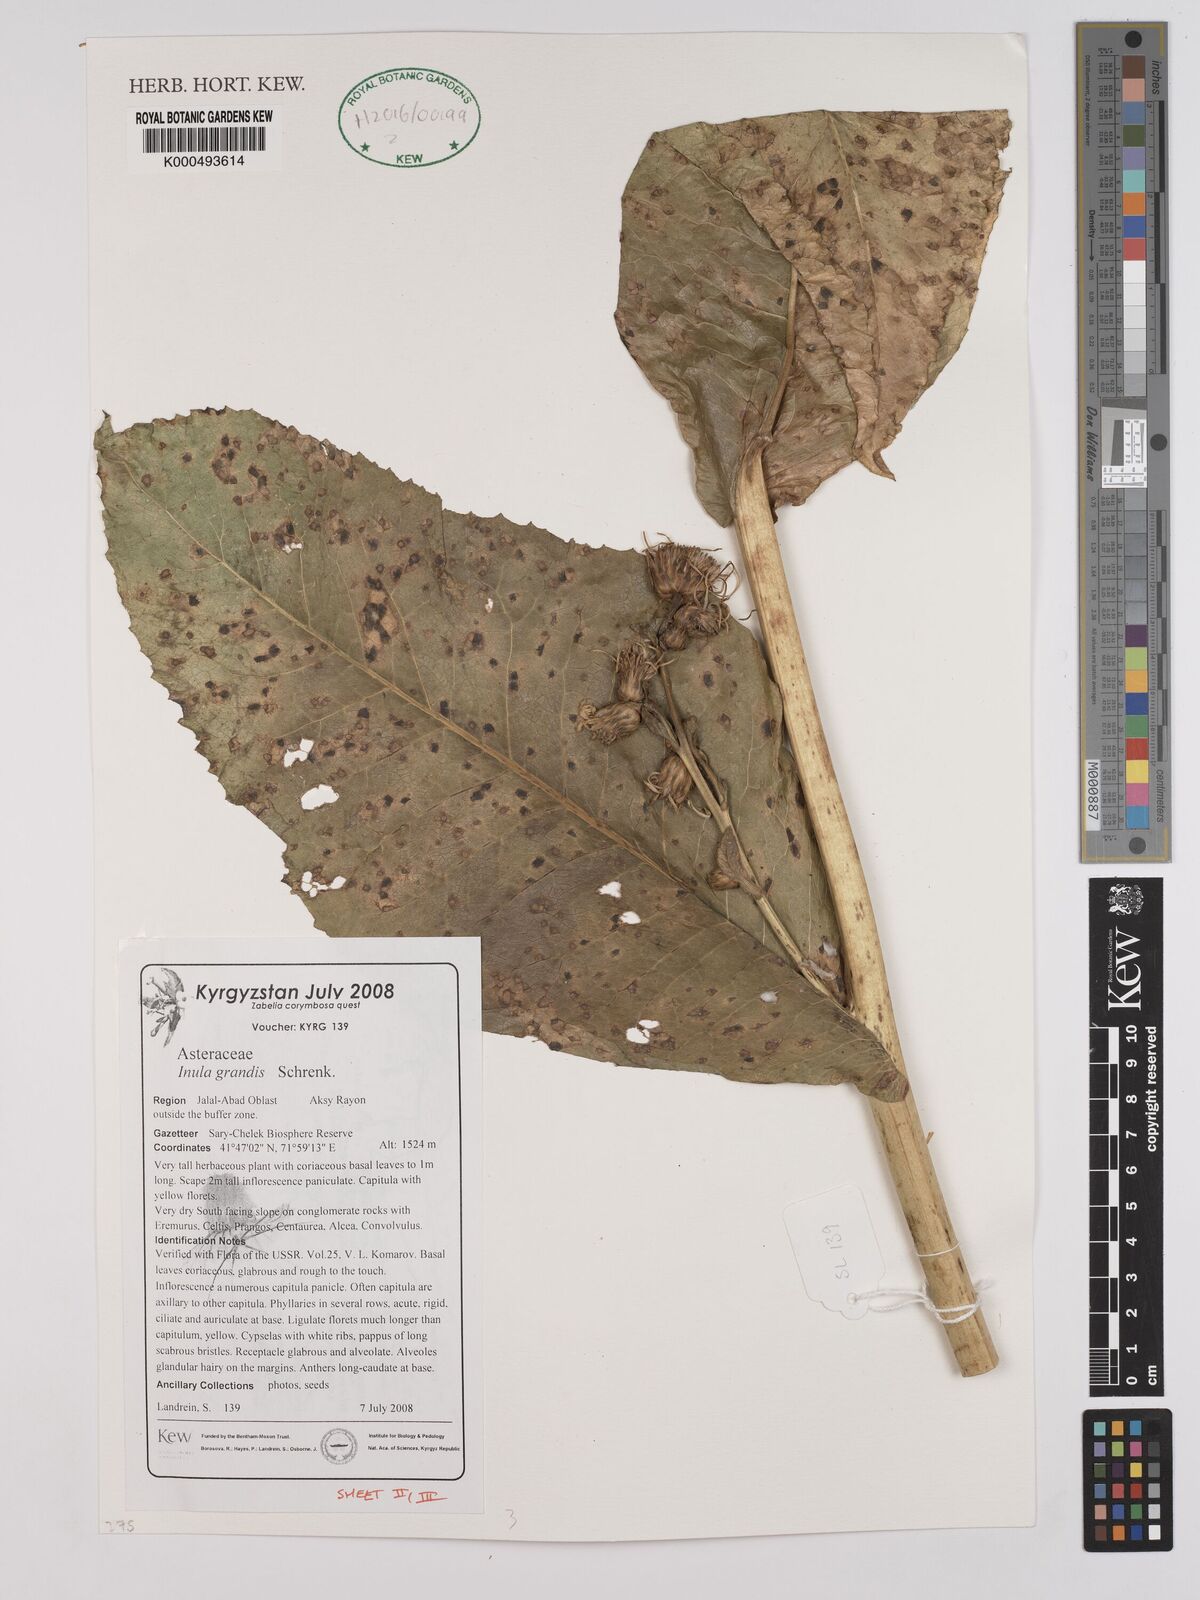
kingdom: Plantae
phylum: Tracheophyta
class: Magnoliopsida
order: Asterales
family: Asteraceae
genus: Inula
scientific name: Inula grandis
